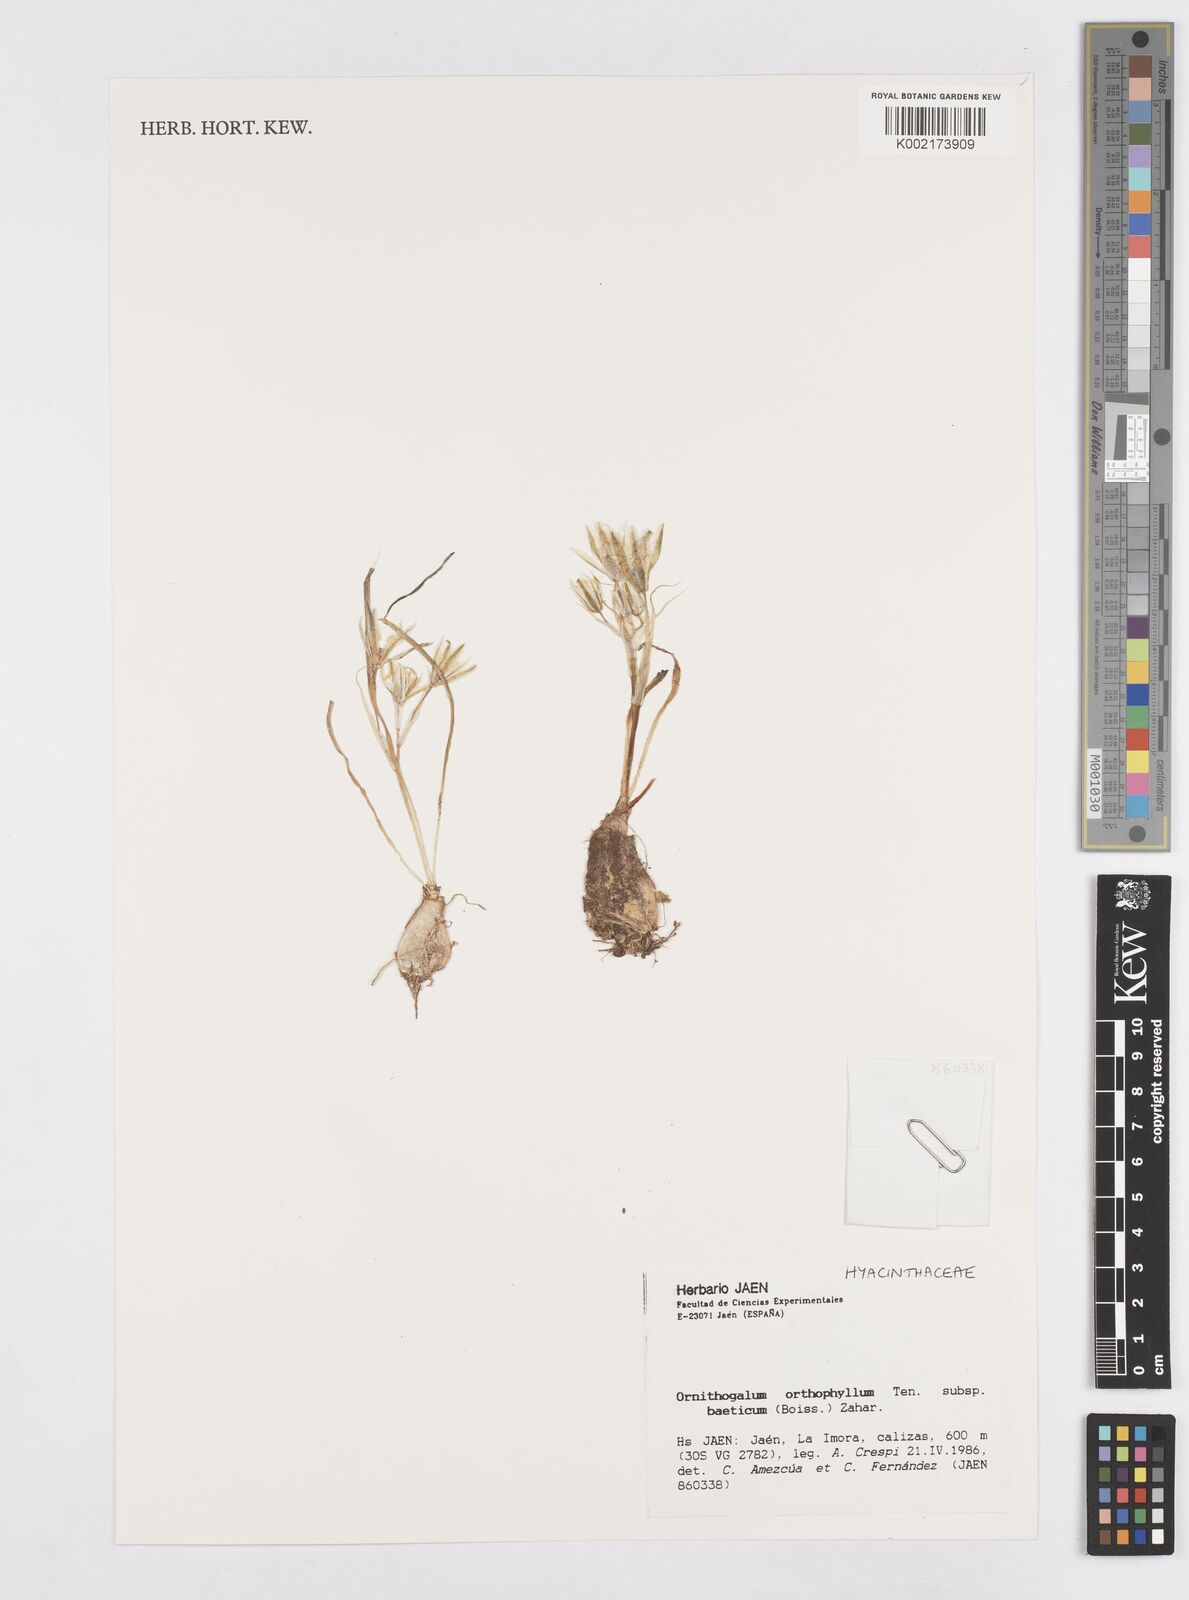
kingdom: Plantae
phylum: Tracheophyta
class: Liliopsida
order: Asparagales
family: Asparagaceae
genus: Ornithogalum
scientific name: Ornithogalum baeticum
